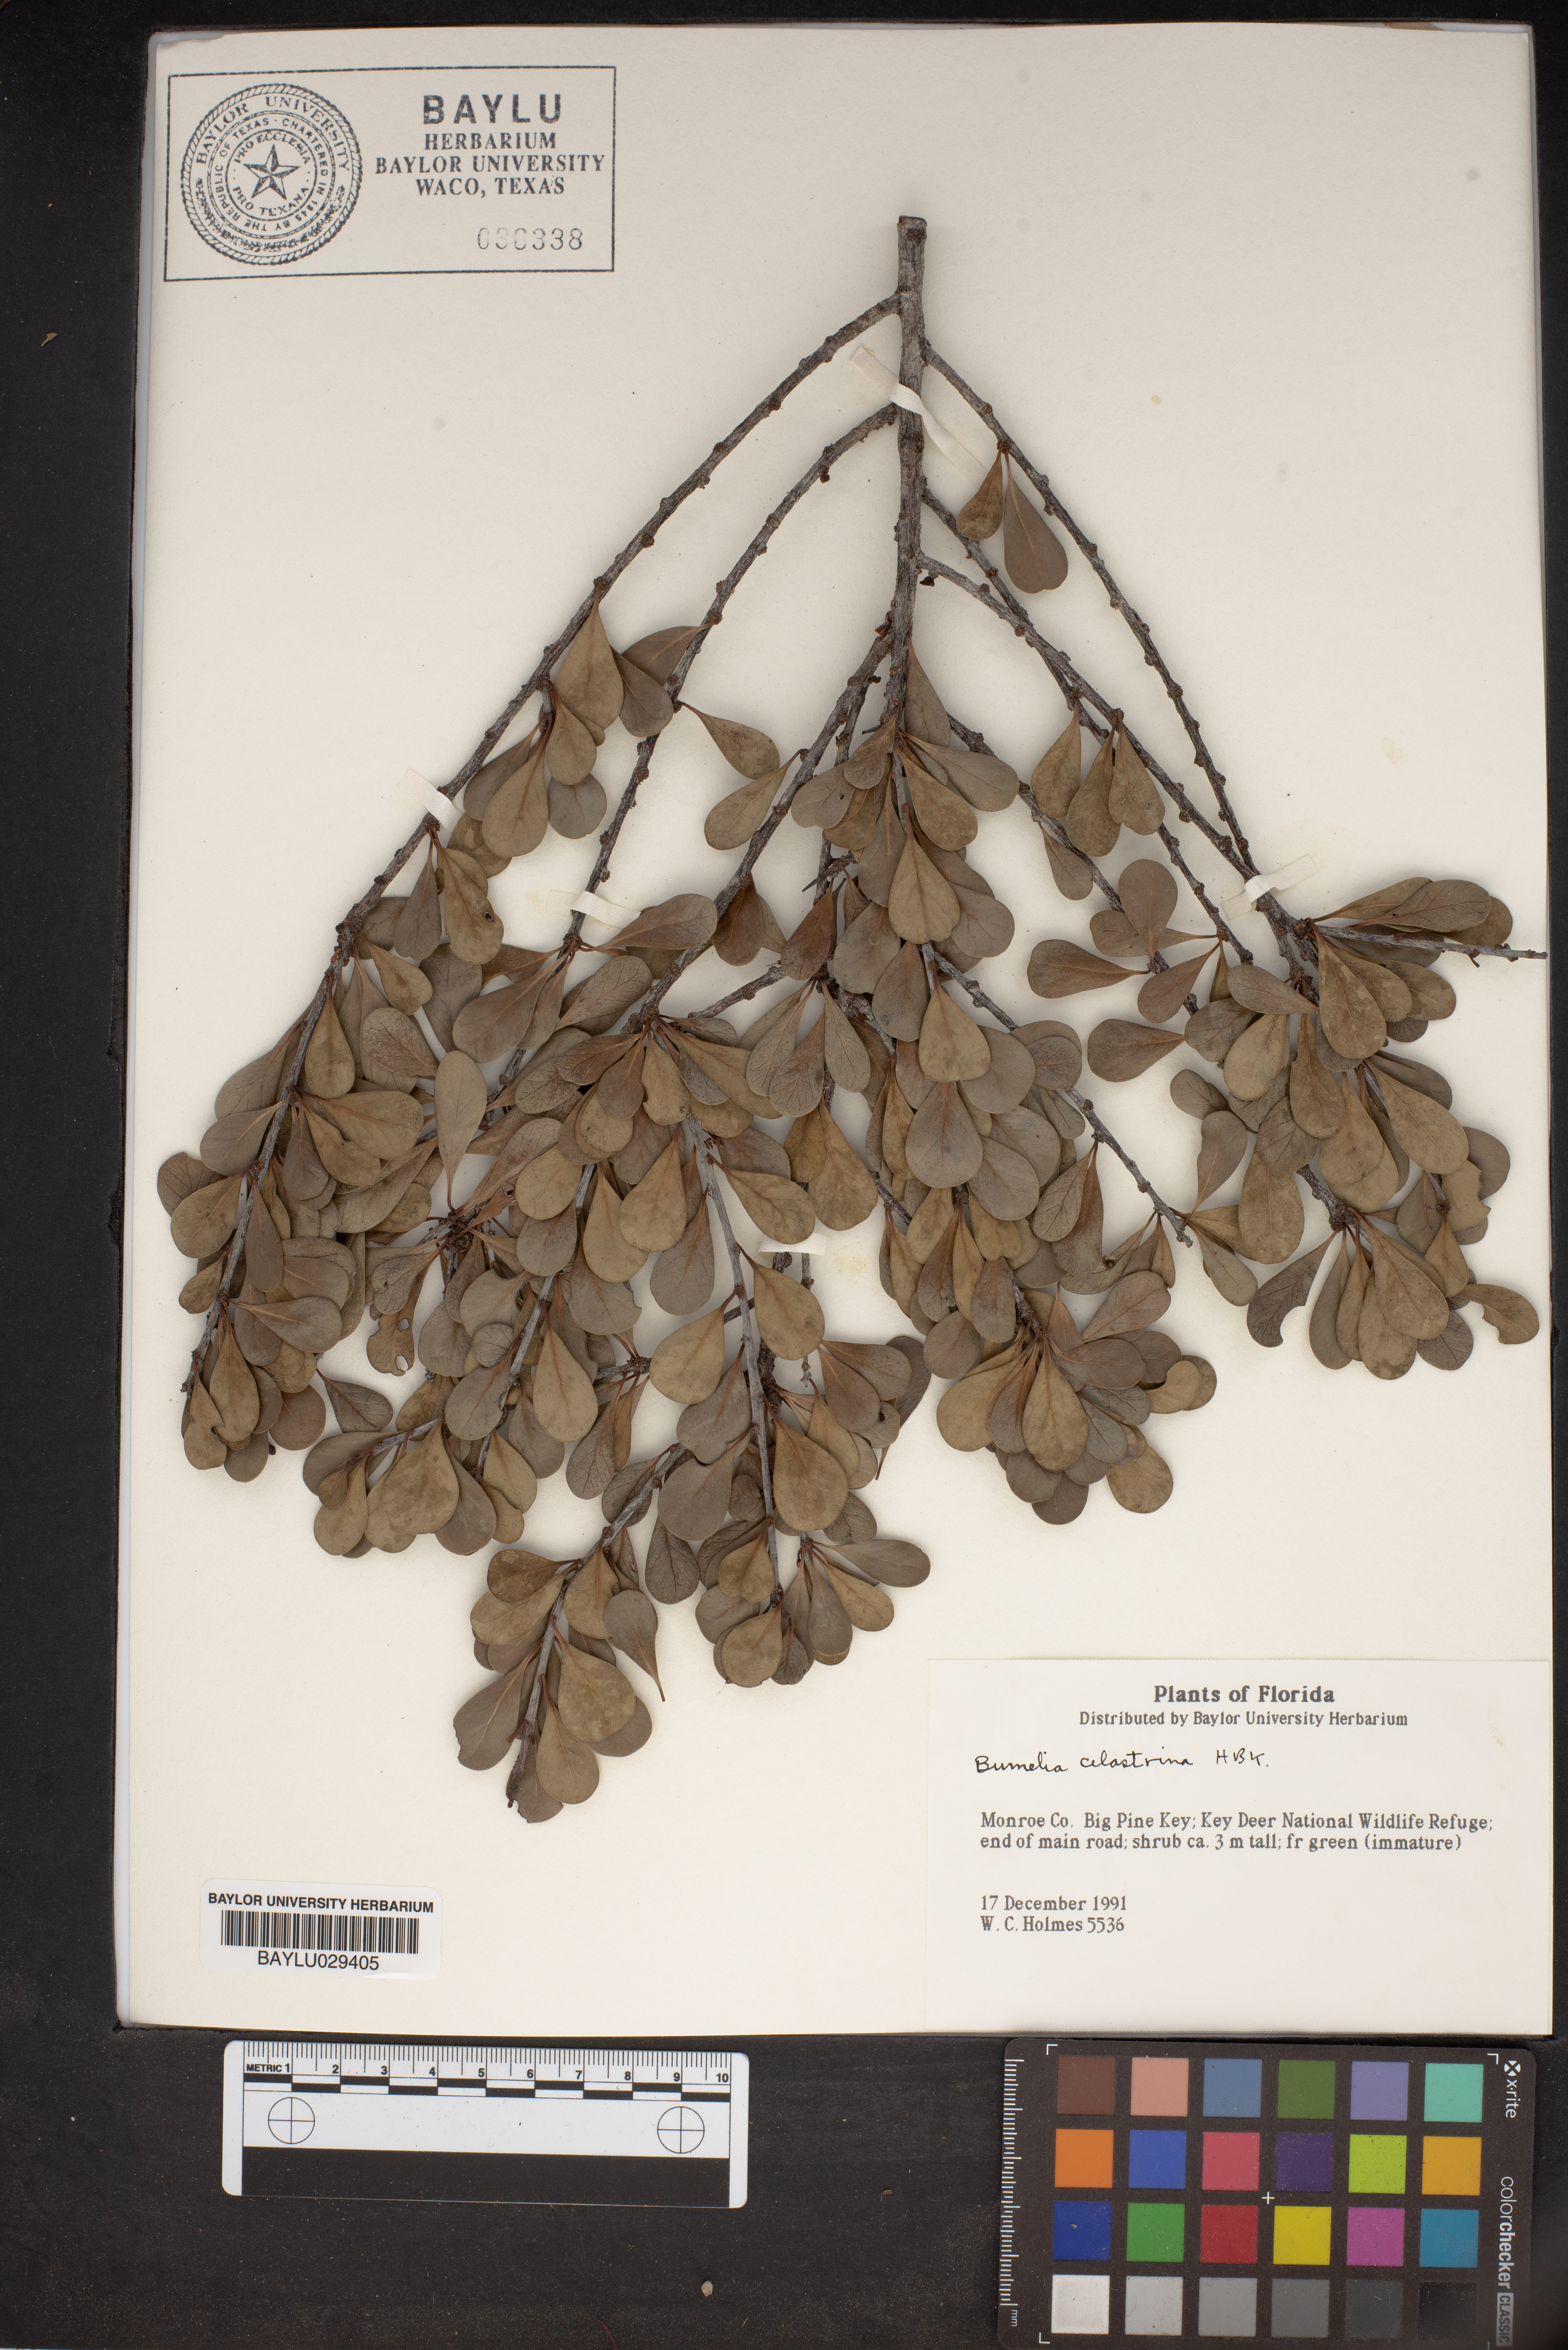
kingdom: Plantae
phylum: Tracheophyta
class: Magnoliopsida
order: Ericales
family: Sapotaceae
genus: Sideroxylon
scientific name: Sideroxylon celastrinum
